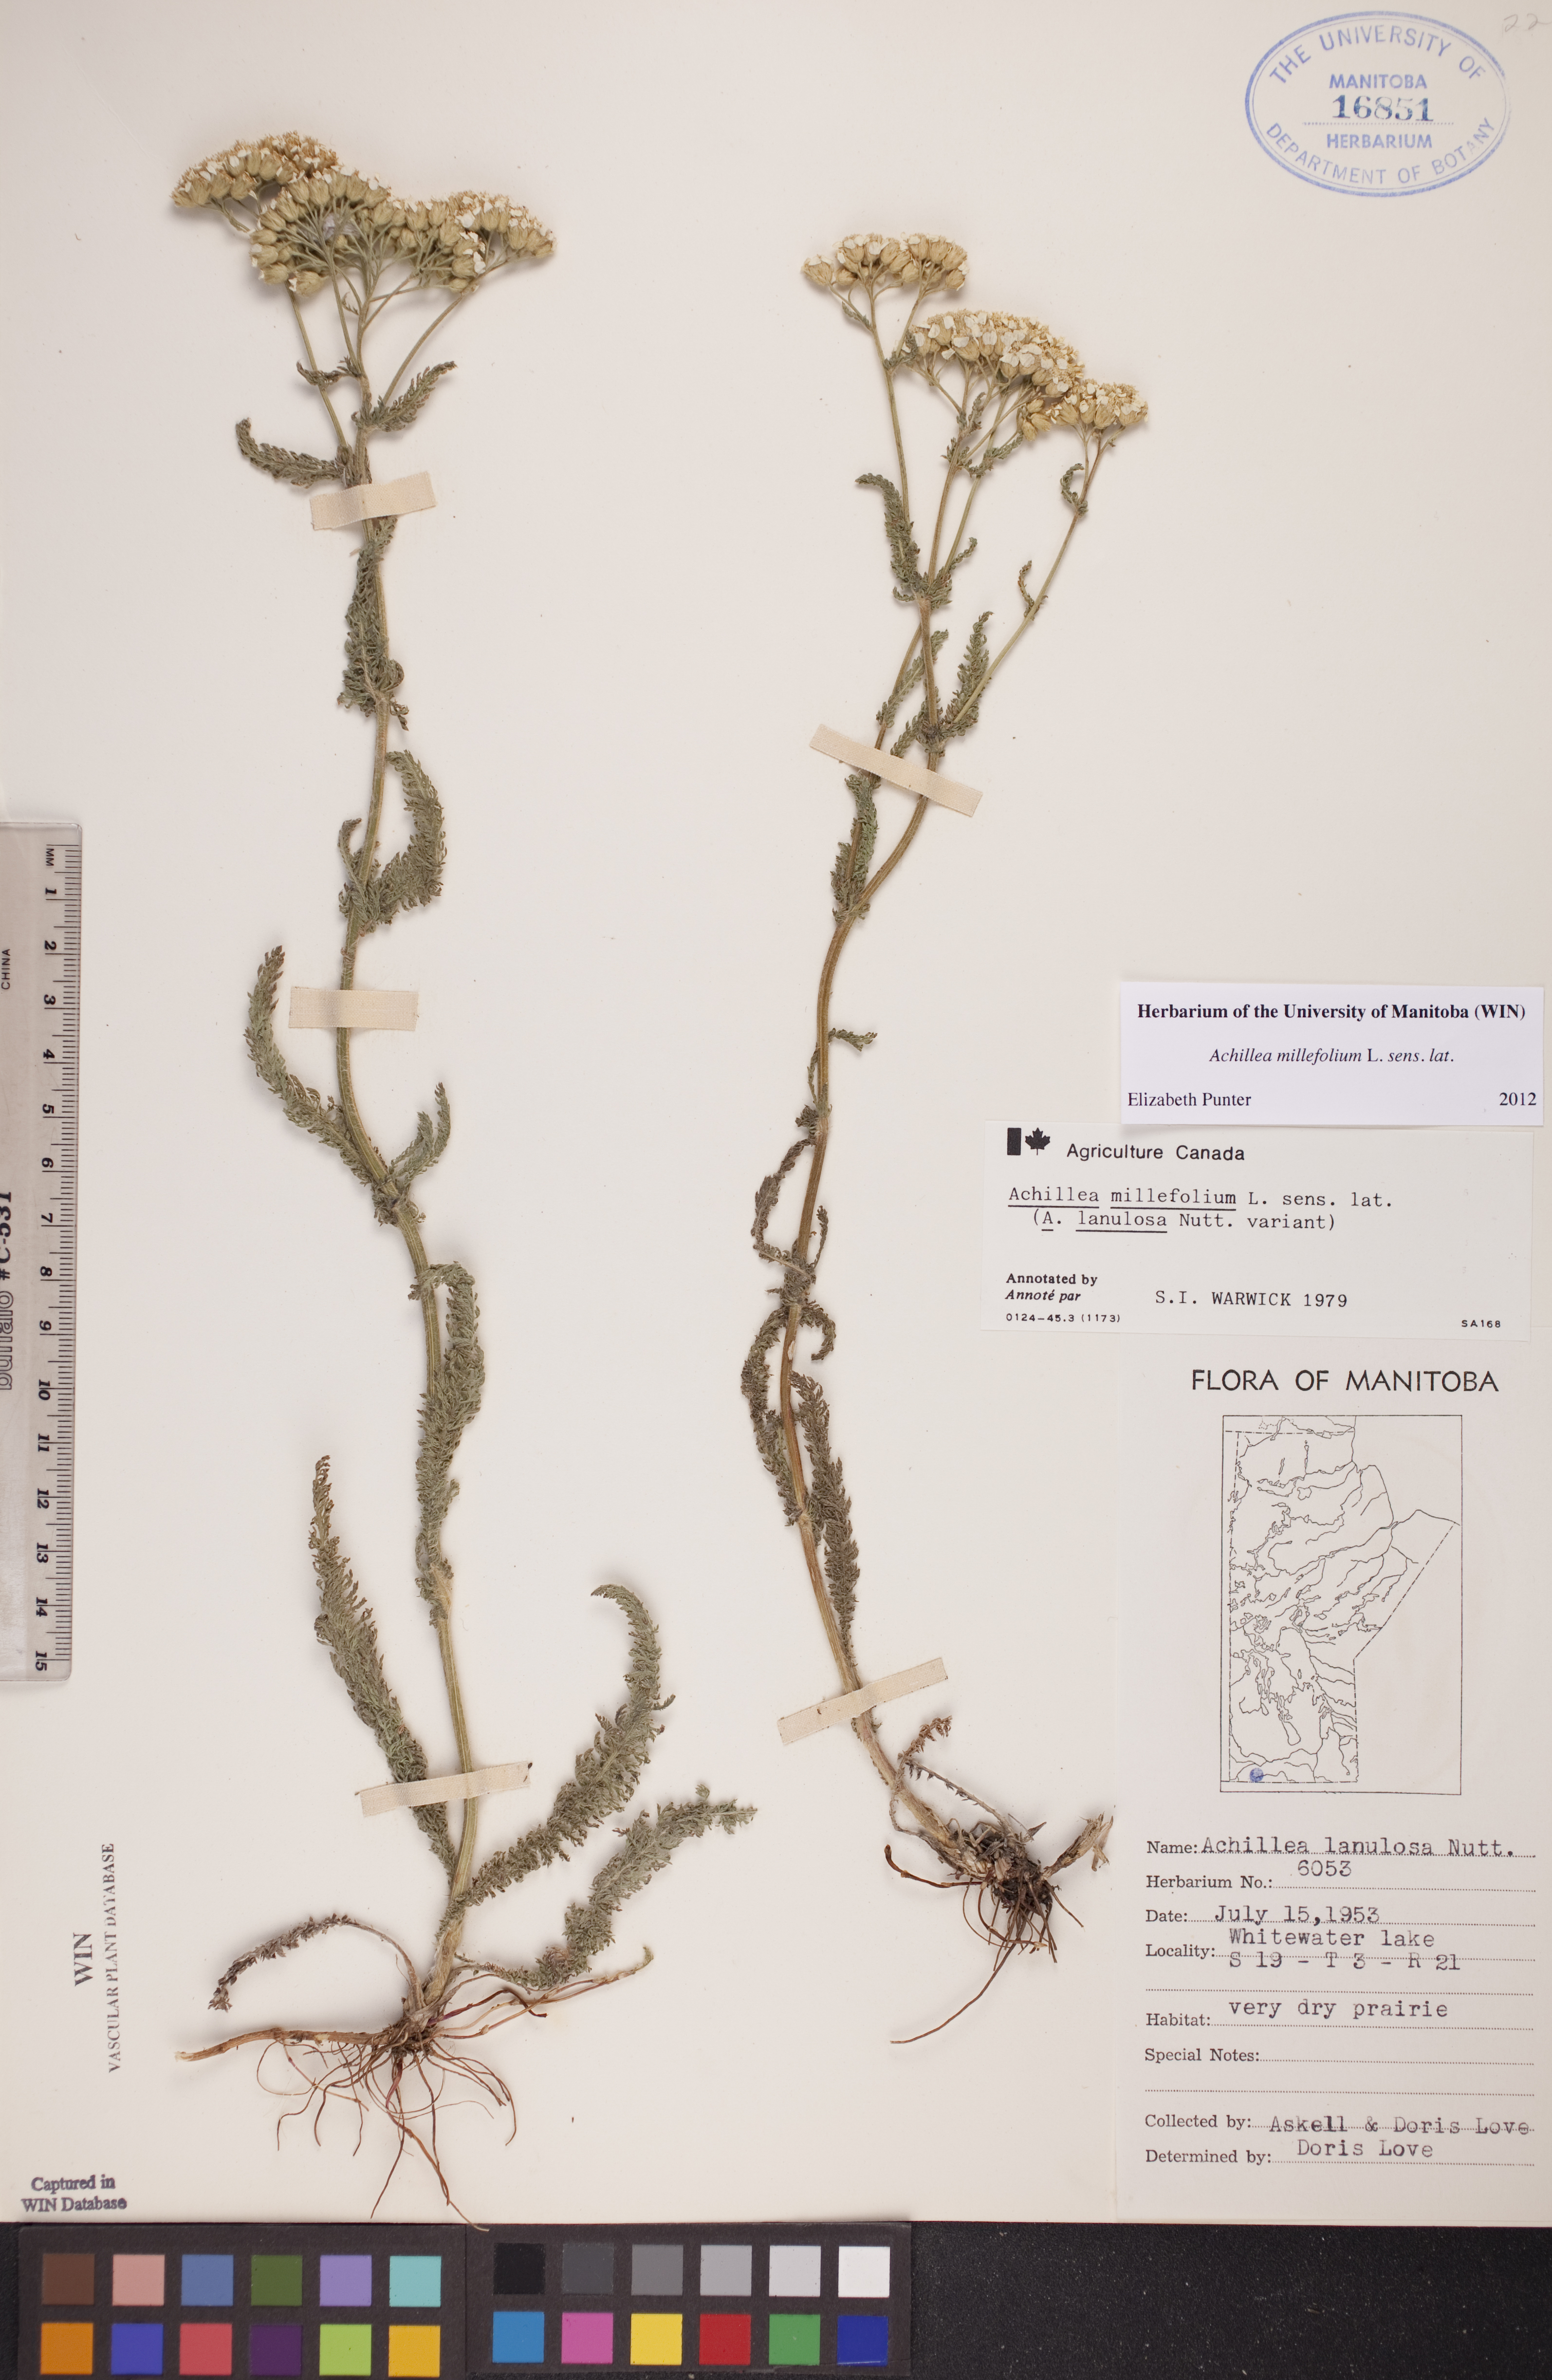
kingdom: Plantae
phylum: Tracheophyta
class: Magnoliopsida
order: Asterales
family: Asteraceae
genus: Achillea
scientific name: Achillea millefolium
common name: Yarrow
